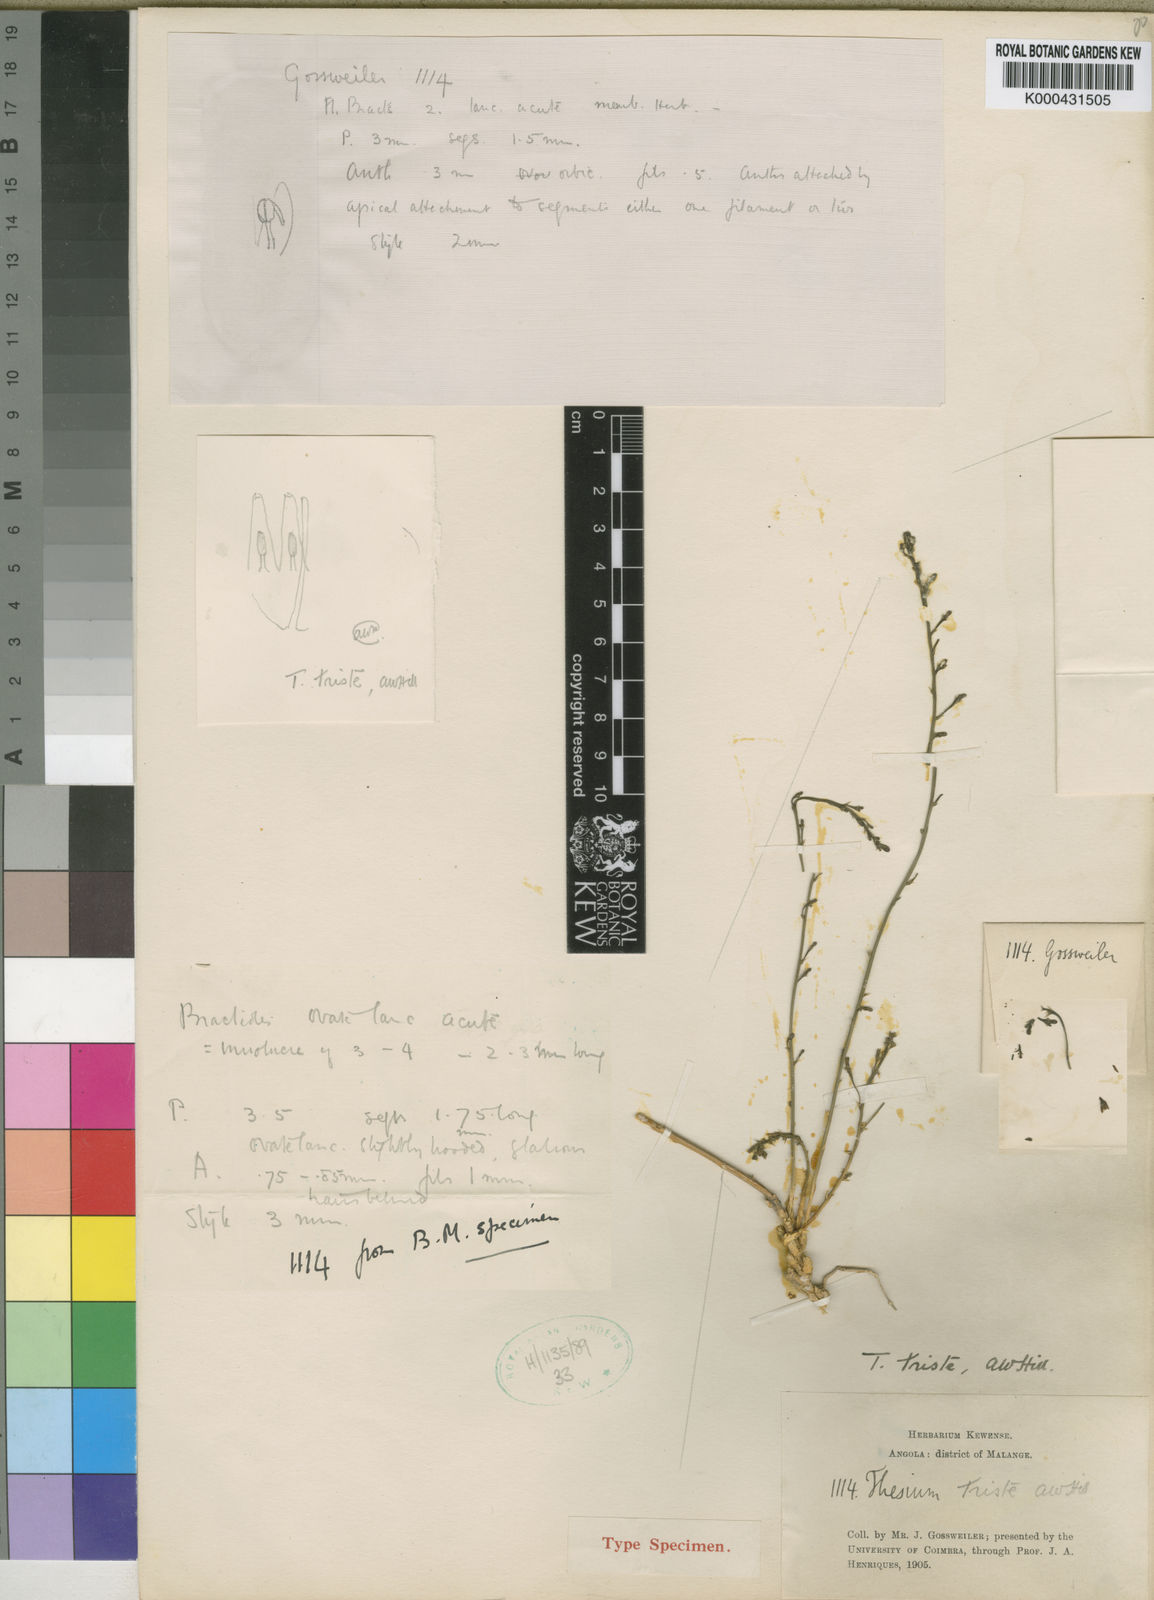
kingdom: Plantae
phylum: Tracheophyta
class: Magnoliopsida
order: Santalales
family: Thesiaceae
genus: Thesium
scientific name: Thesium triste
